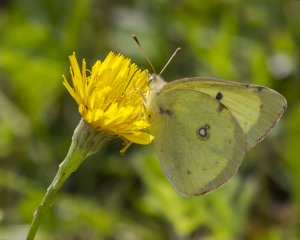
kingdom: Animalia
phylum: Arthropoda
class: Insecta
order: Lepidoptera
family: Pieridae
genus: Colias
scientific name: Colias philodice
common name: Clouded Sulphur
